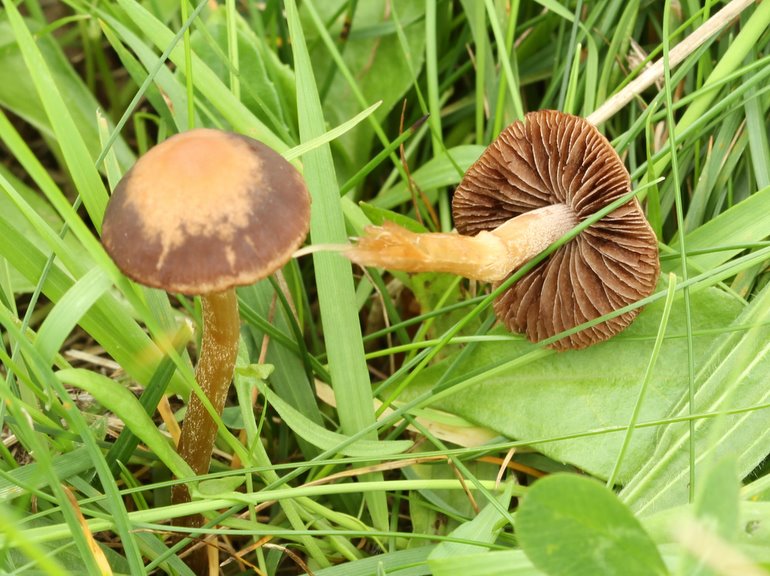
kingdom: Fungi
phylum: Basidiomycota
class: Agaricomycetes
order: Agaricales
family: Bolbitiaceae
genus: Panaeolina
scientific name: Panaeolina foenisecii
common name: høslætsvamp
